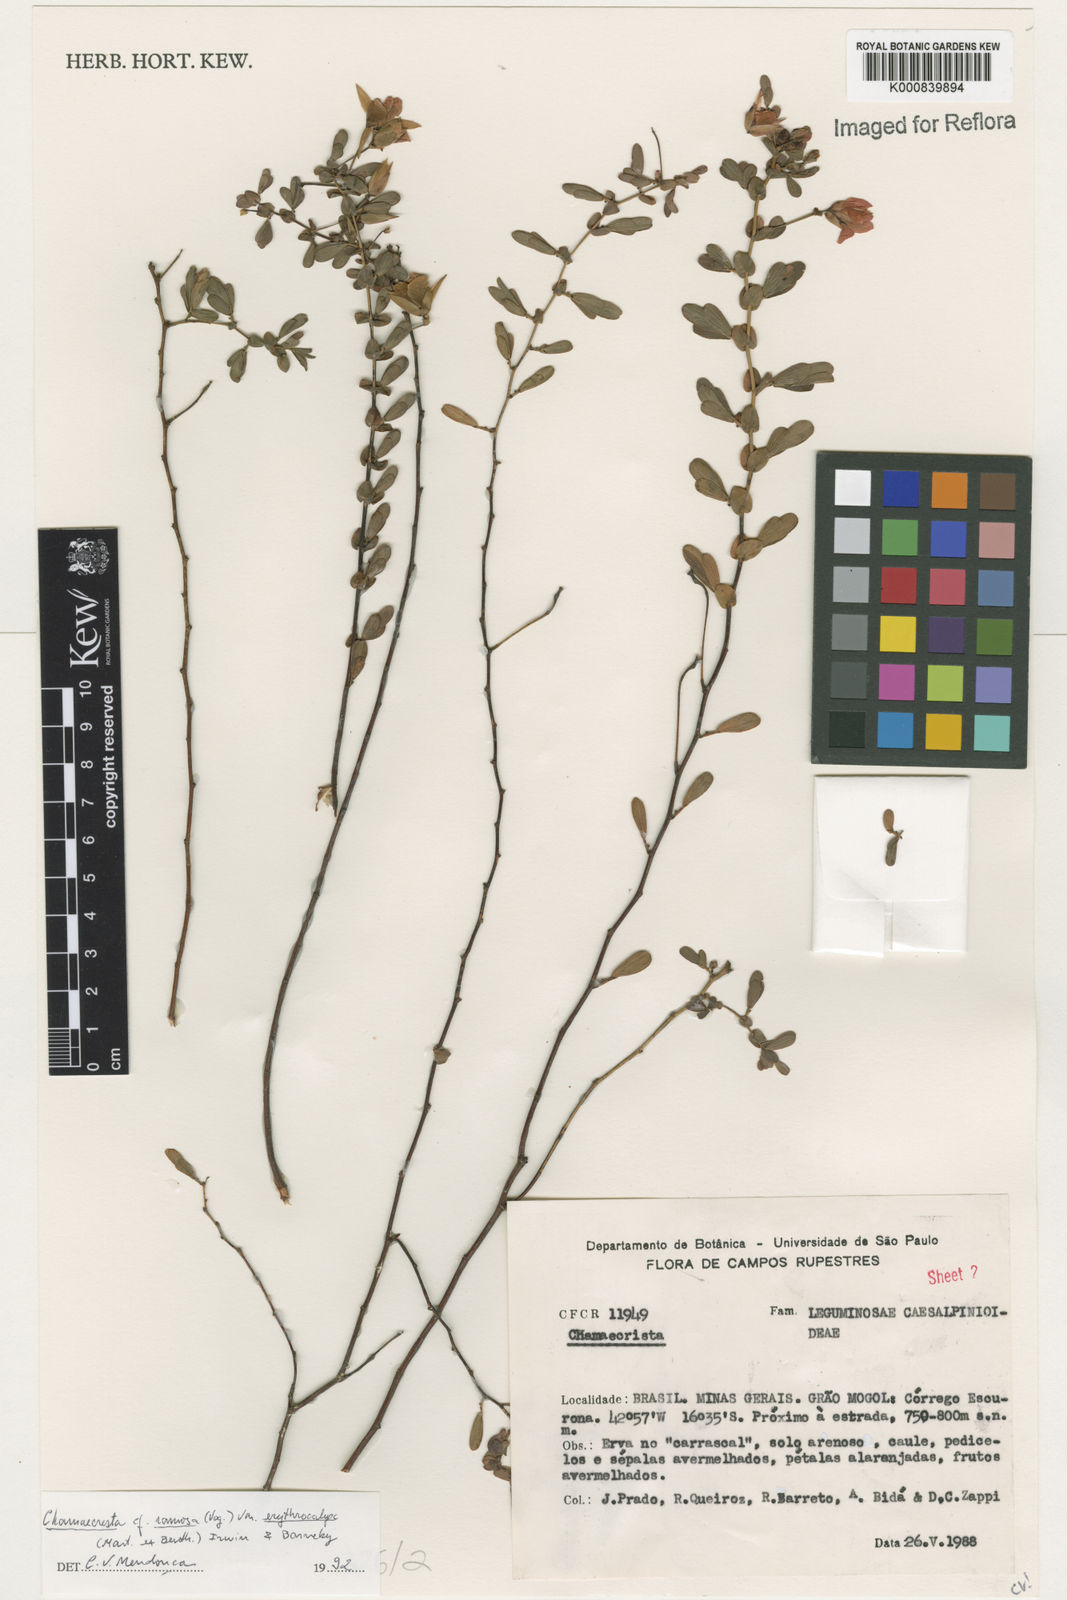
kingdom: Plantae
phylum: Tracheophyta
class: Magnoliopsida
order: Fabales
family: Fabaceae
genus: Chamaecrista
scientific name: Chamaecrista ramosa
